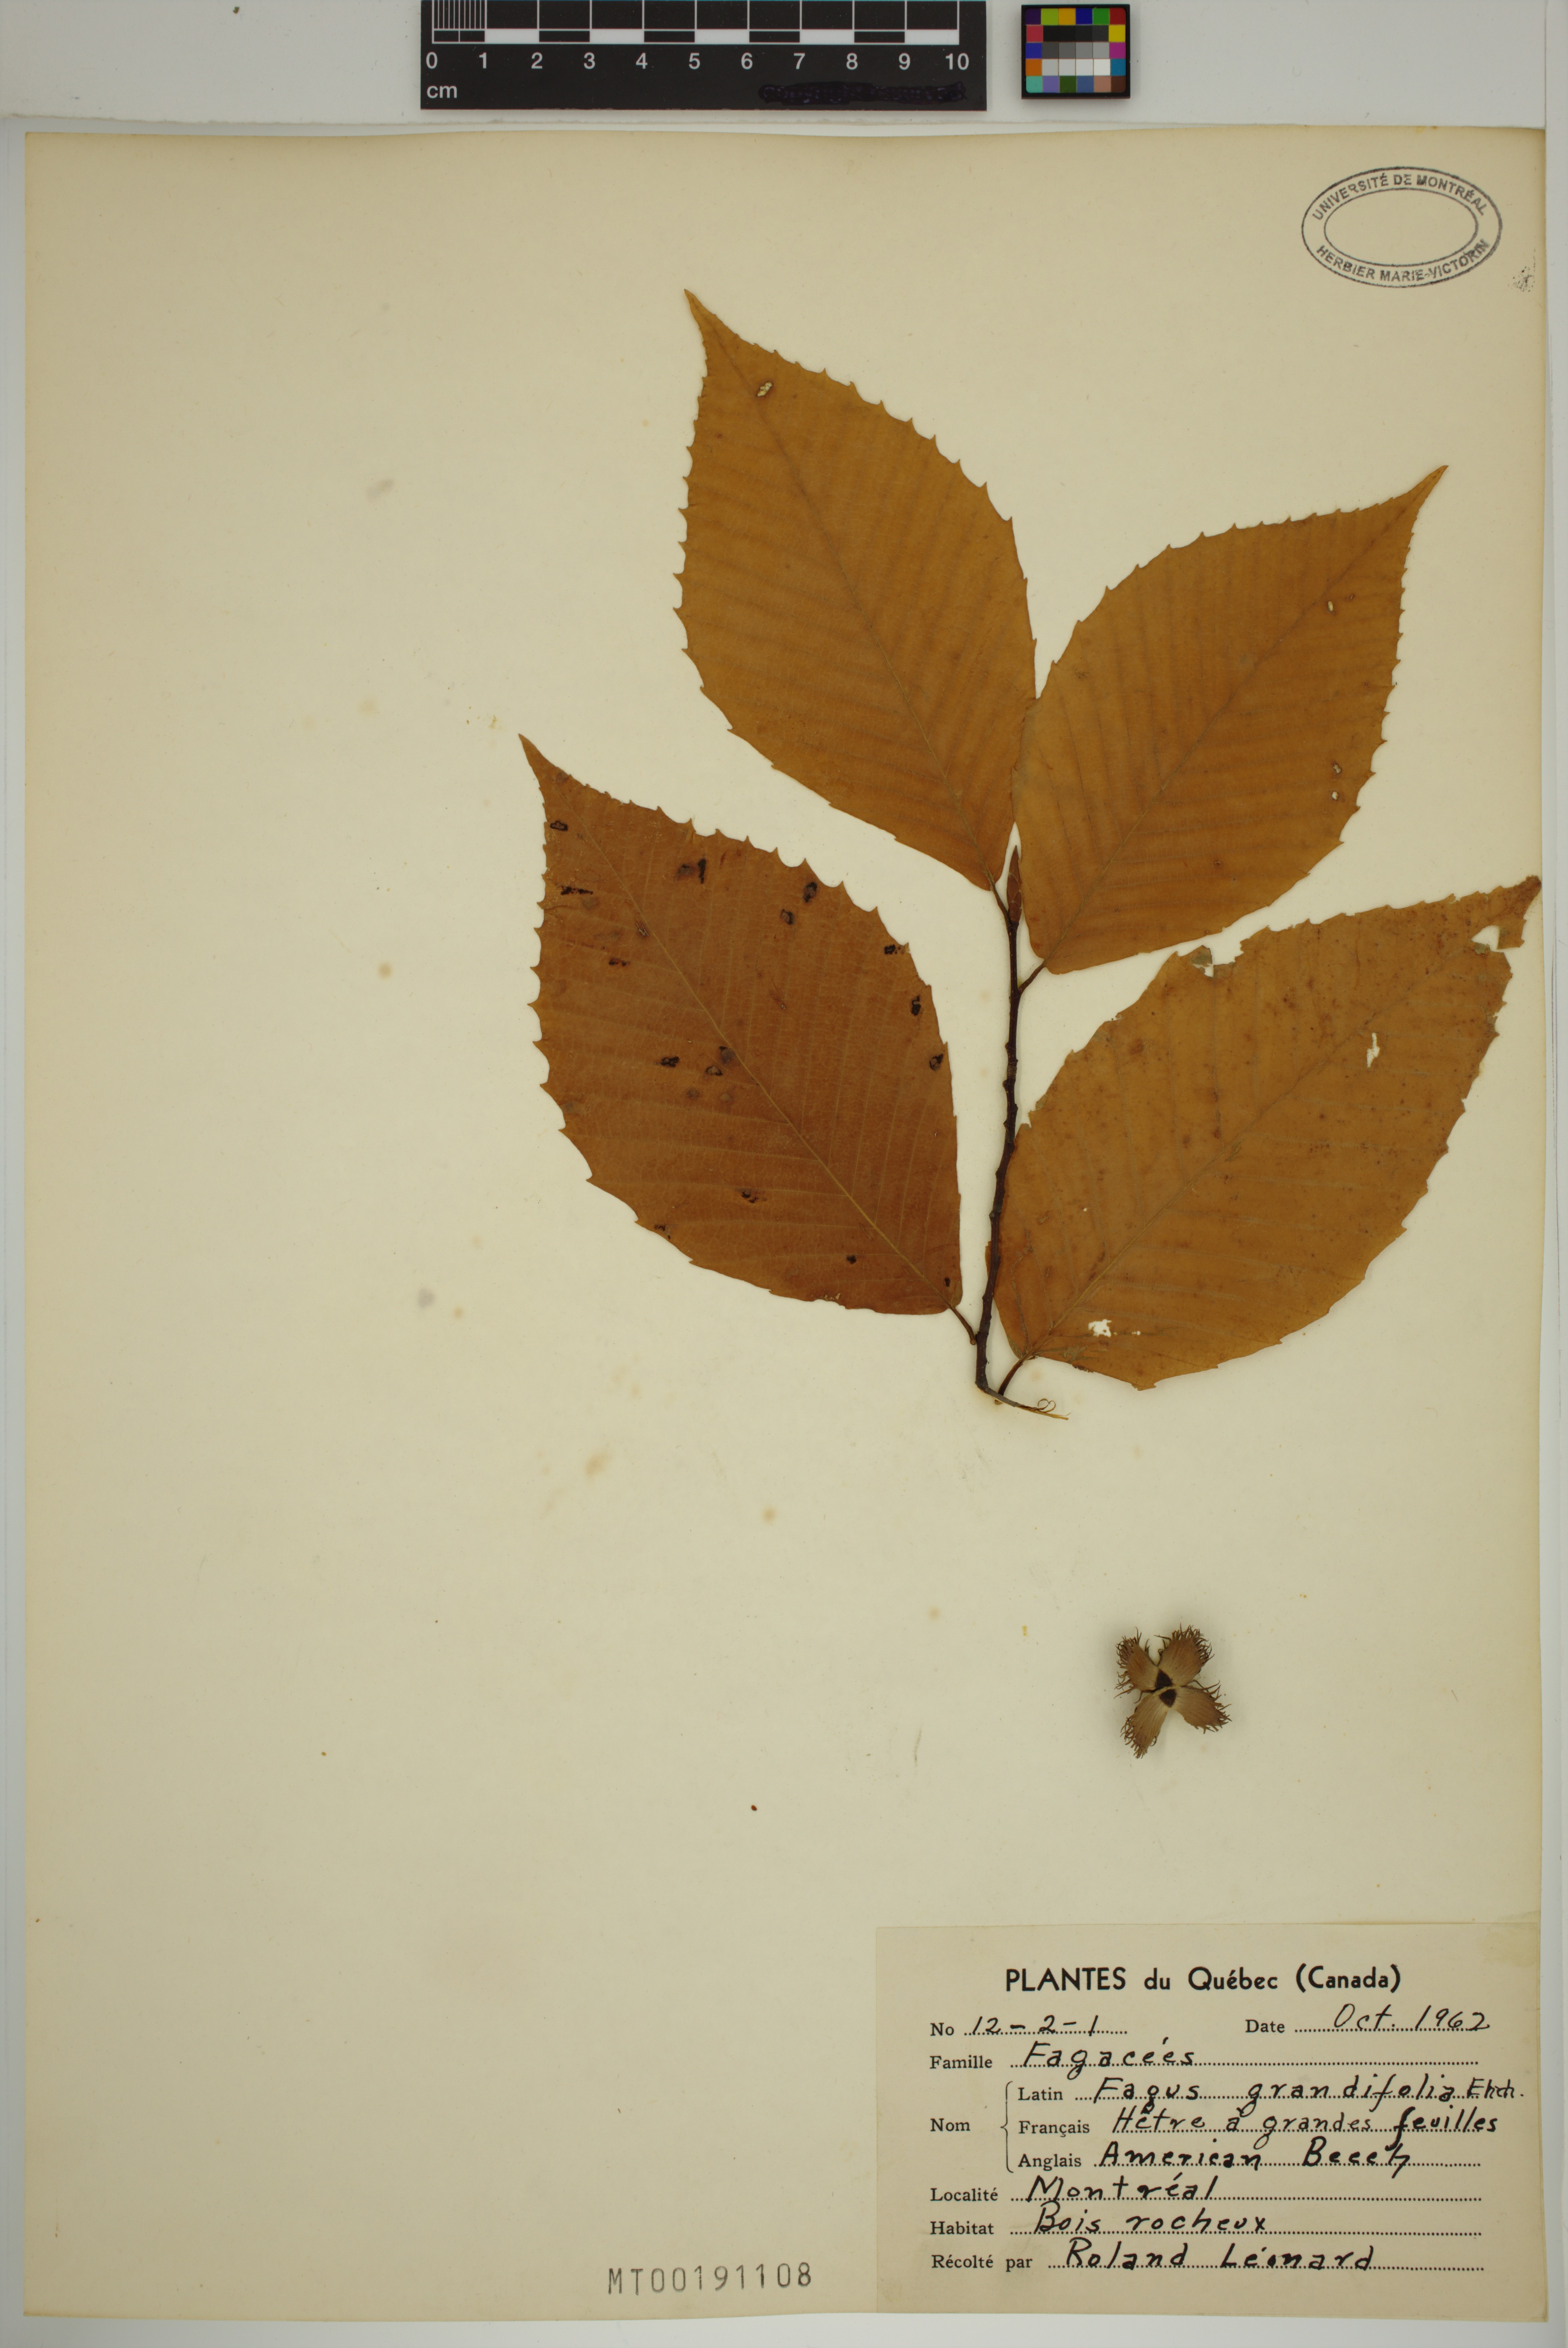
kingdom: Plantae
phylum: Tracheophyta
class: Magnoliopsida
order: Fagales
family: Fagaceae
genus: Fagus
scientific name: Fagus grandifolia
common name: American beech
